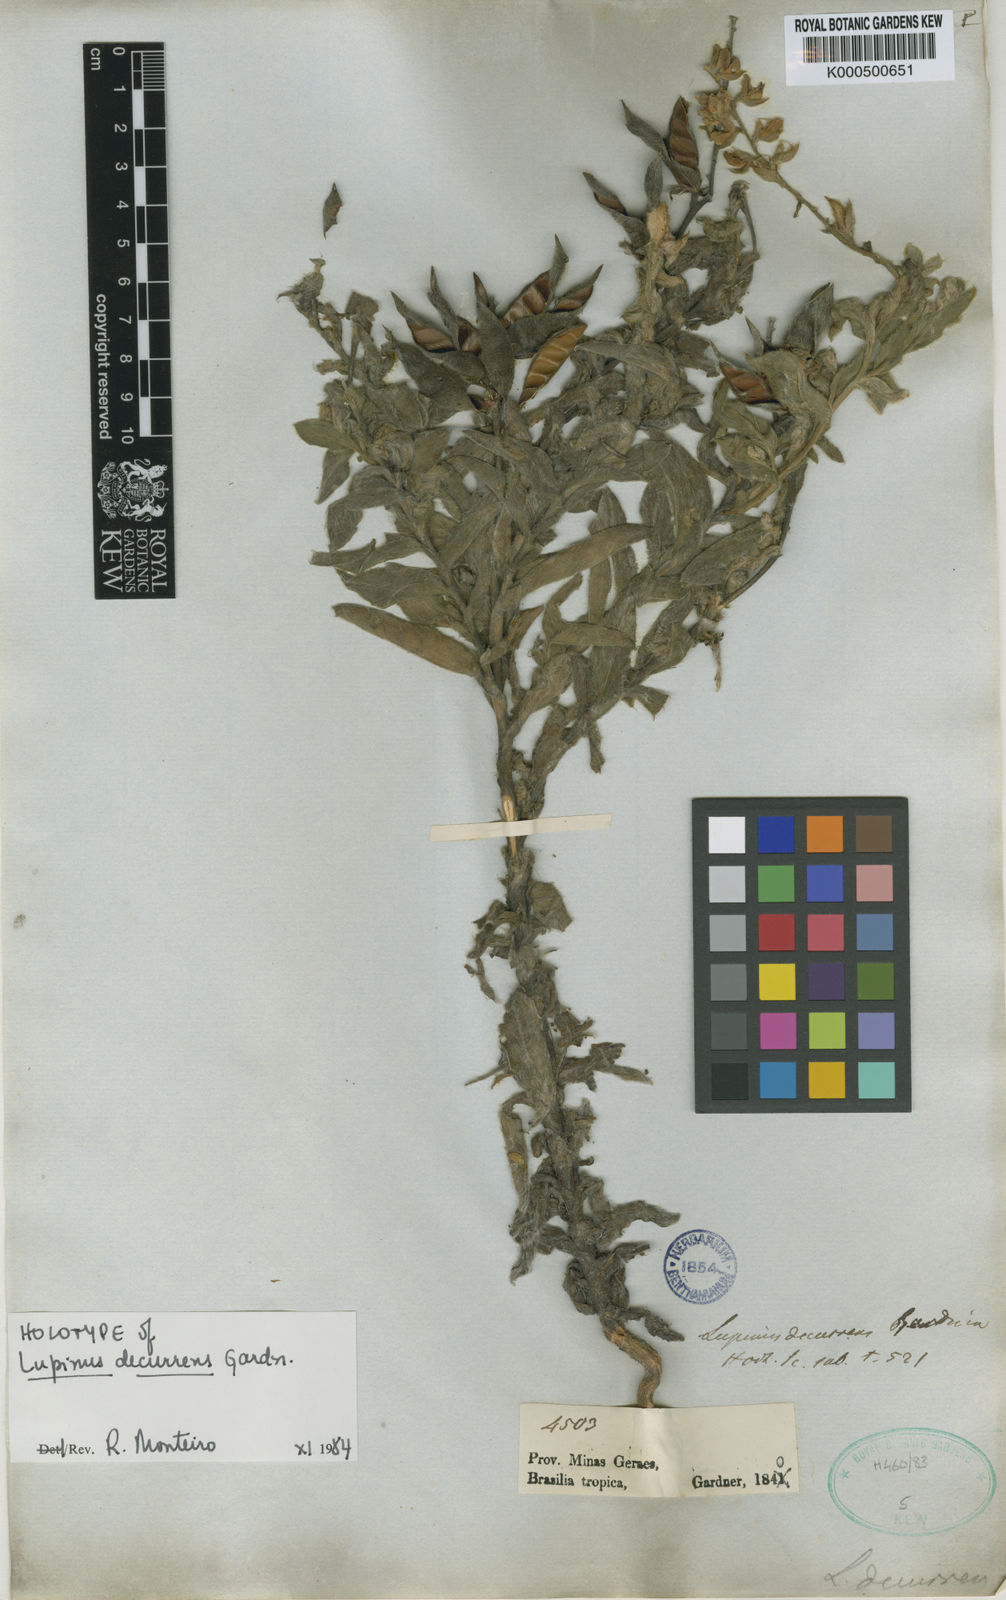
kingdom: Plantae
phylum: Tracheophyta
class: Magnoliopsida
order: Fabales
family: Fabaceae
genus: Lupinus
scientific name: Lupinus decurrens
